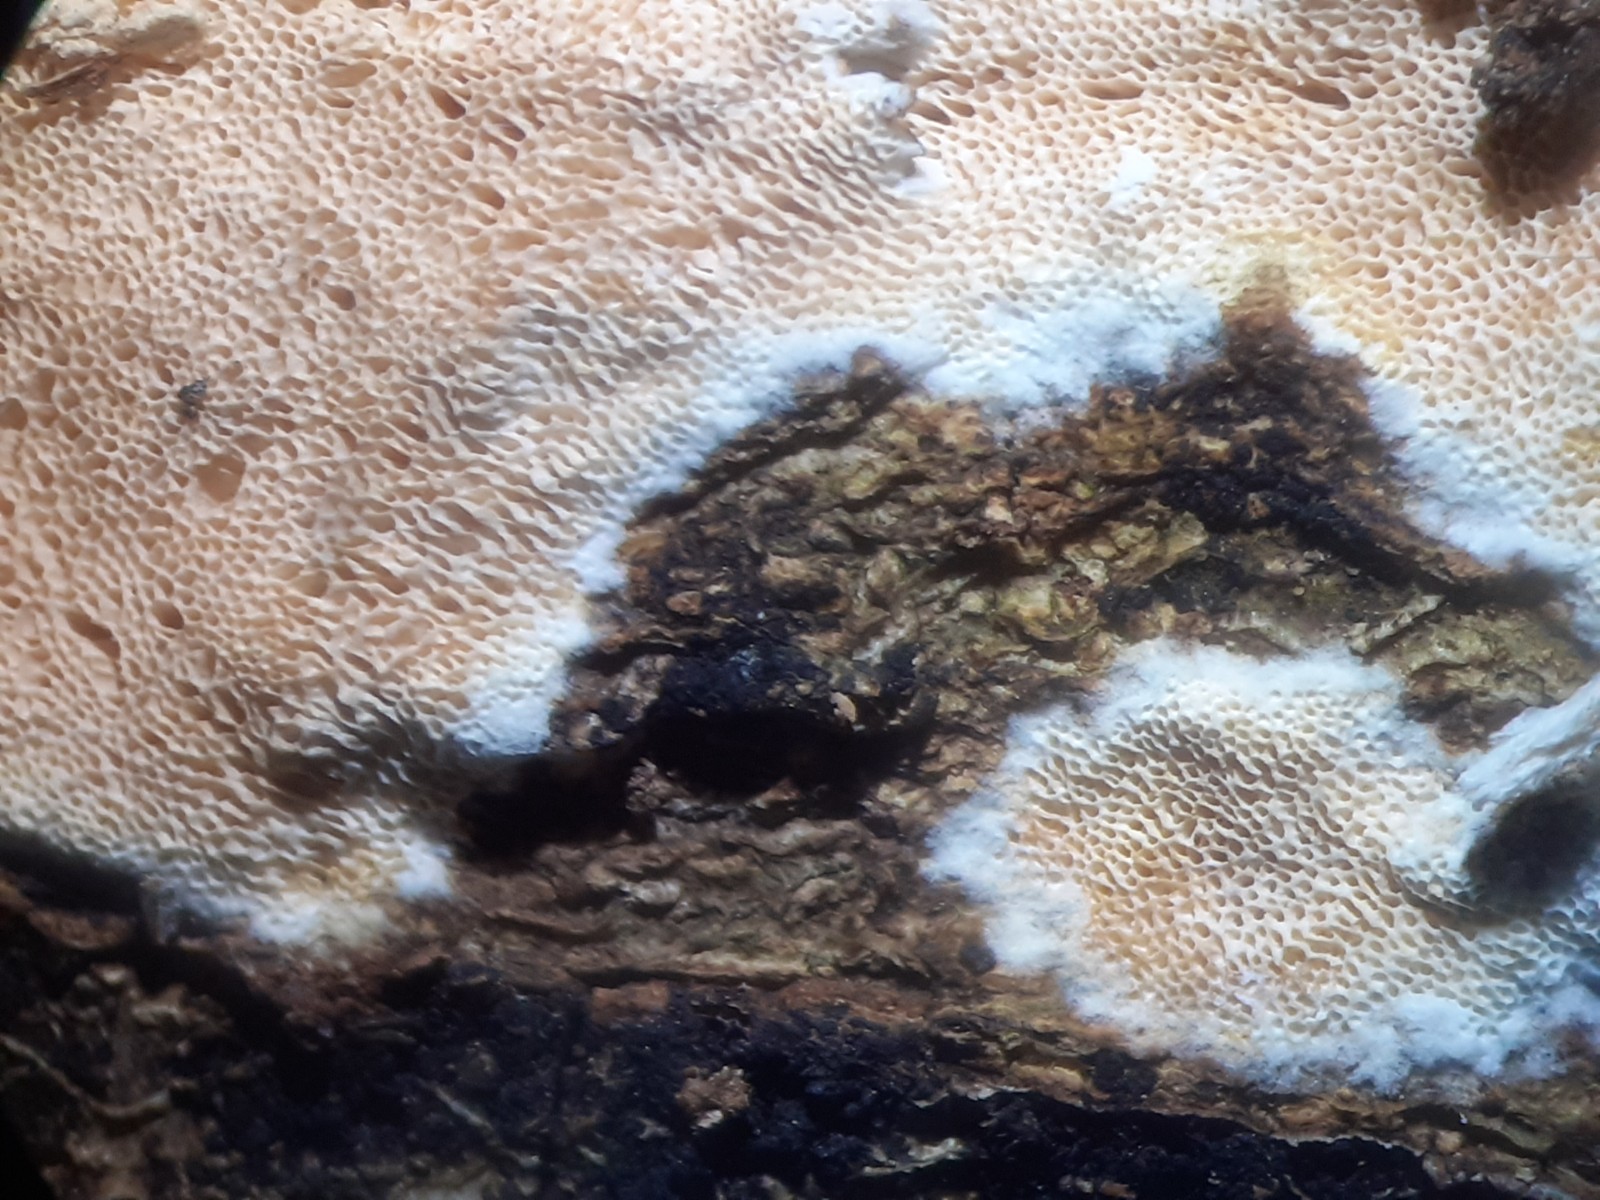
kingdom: Fungi
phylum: Basidiomycota
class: Agaricomycetes
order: Hymenochaetales
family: Schizoporaceae
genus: Xylodon
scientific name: Xylodon
